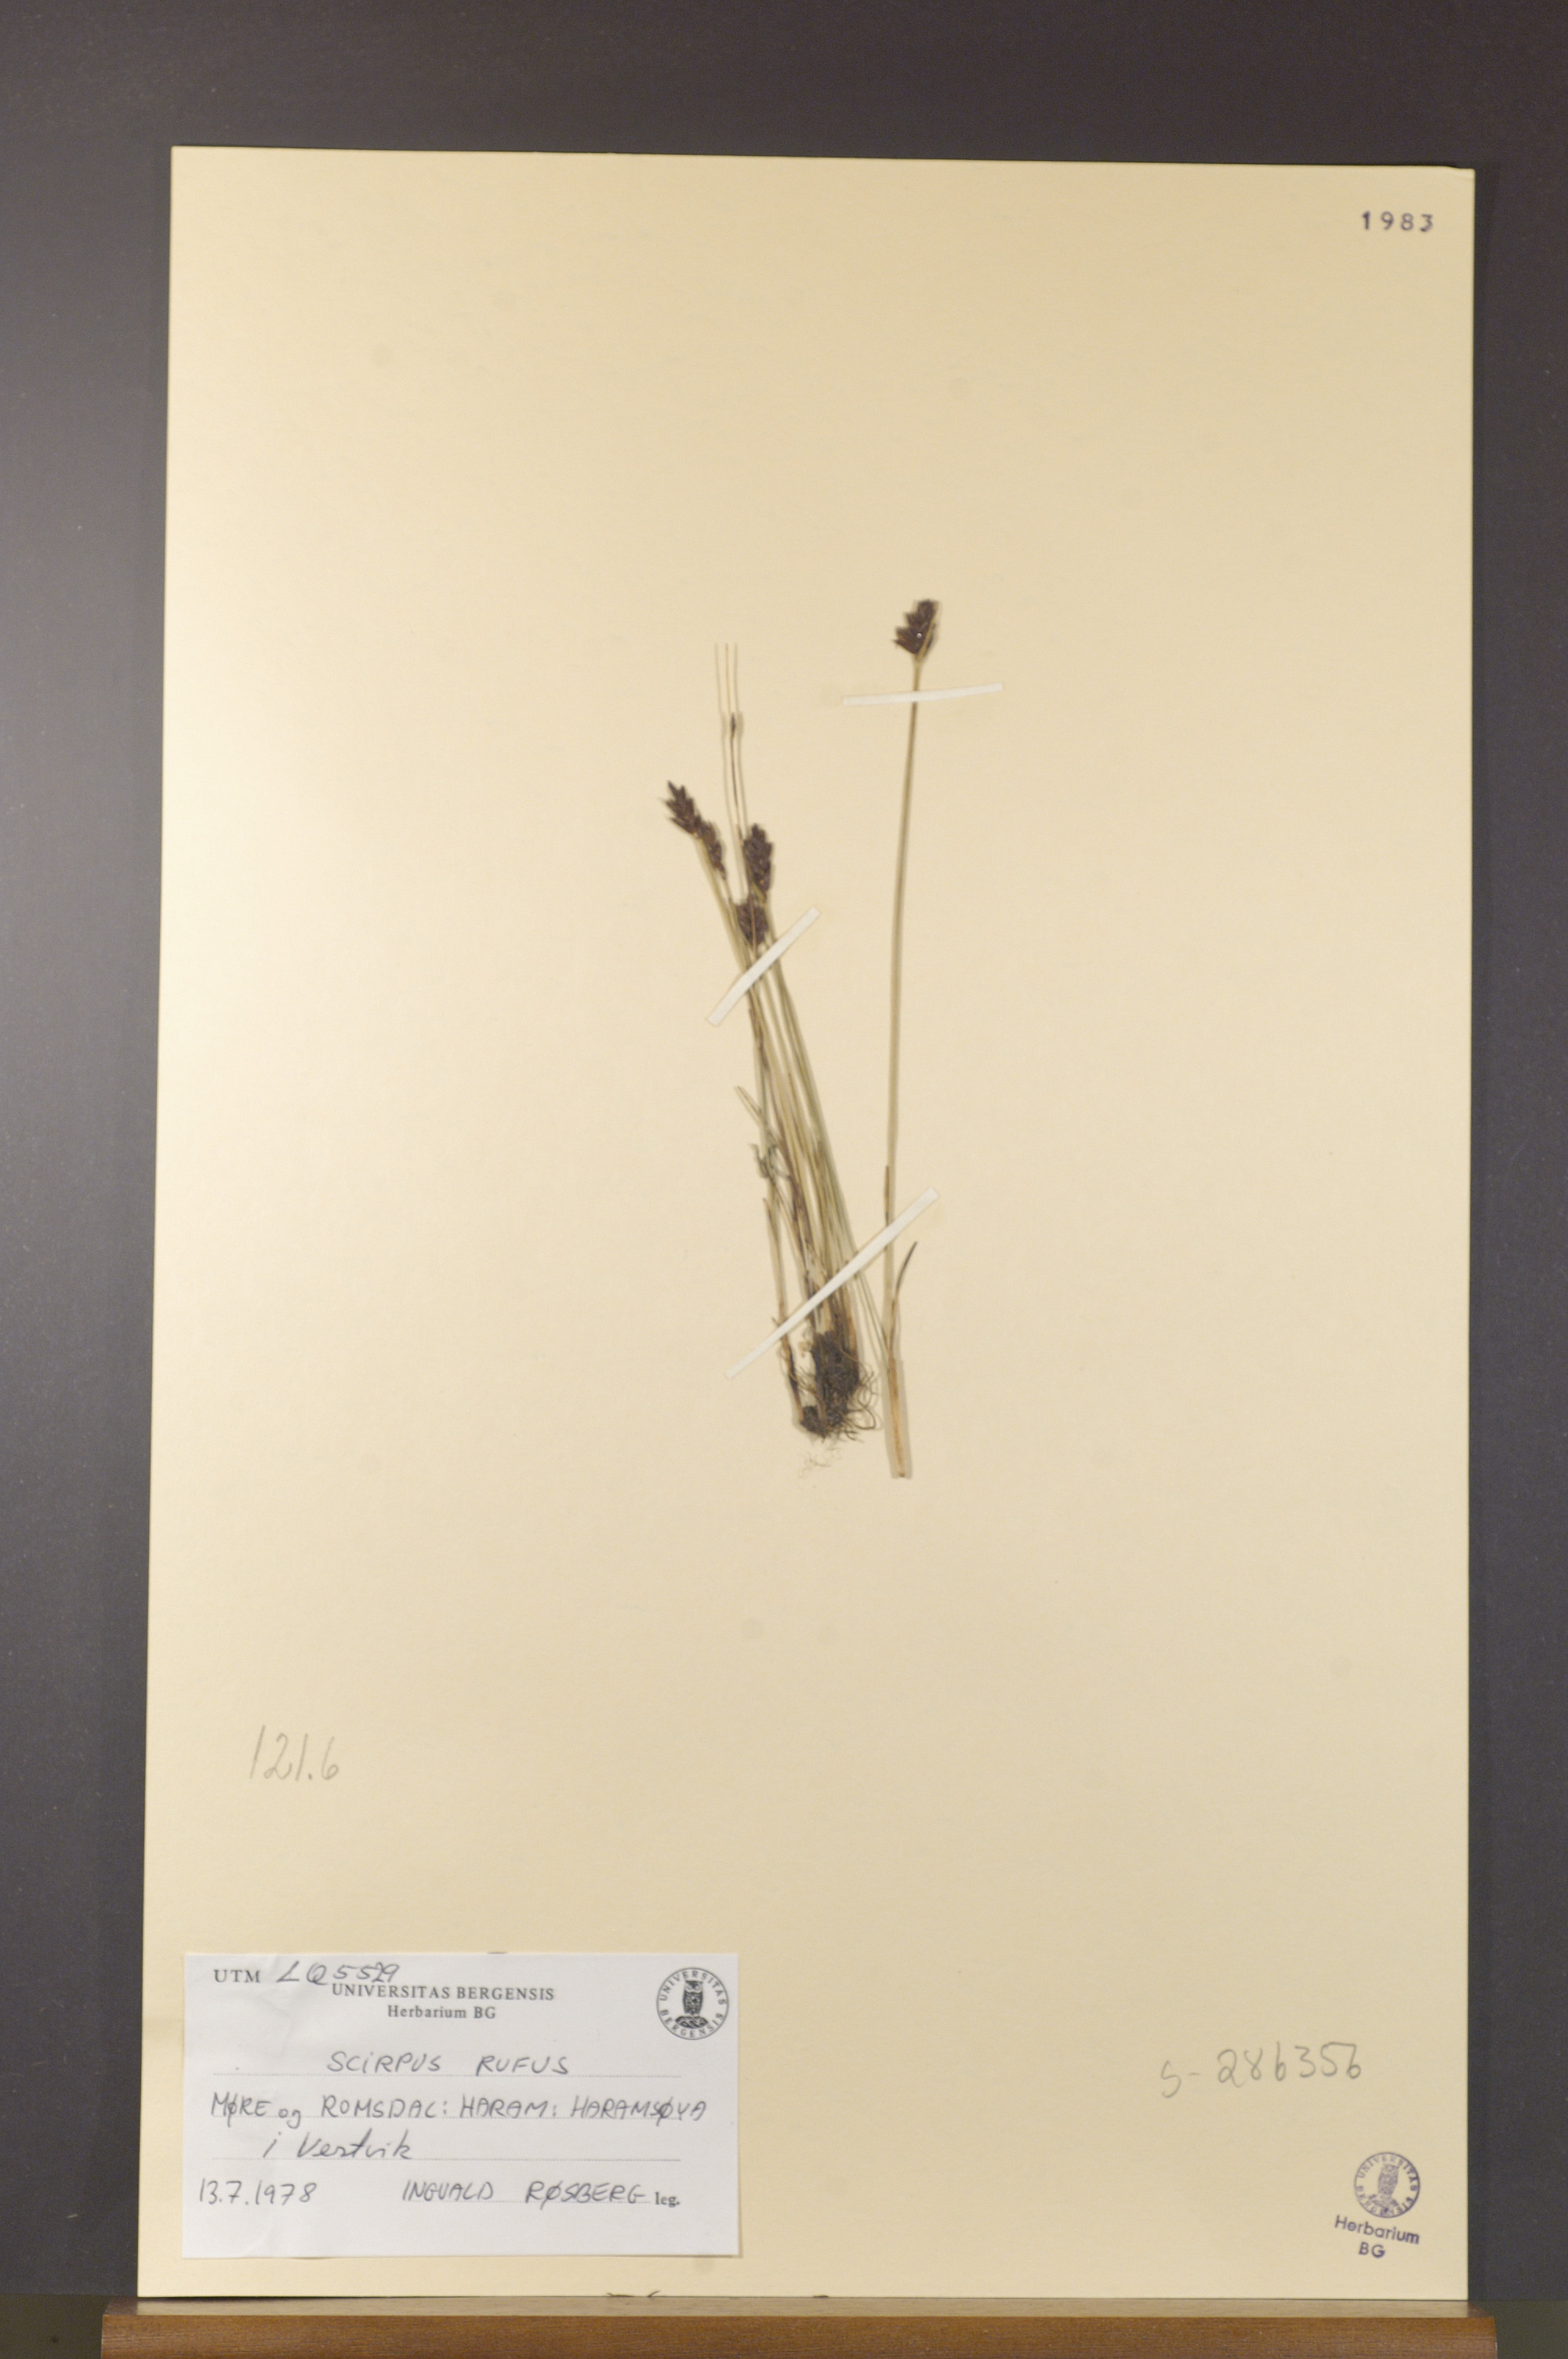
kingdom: Plantae
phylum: Tracheophyta
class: Liliopsida
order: Poales
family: Cyperaceae
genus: Blysmus
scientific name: Blysmus rufus
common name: Saltmarsh flat-sedge
